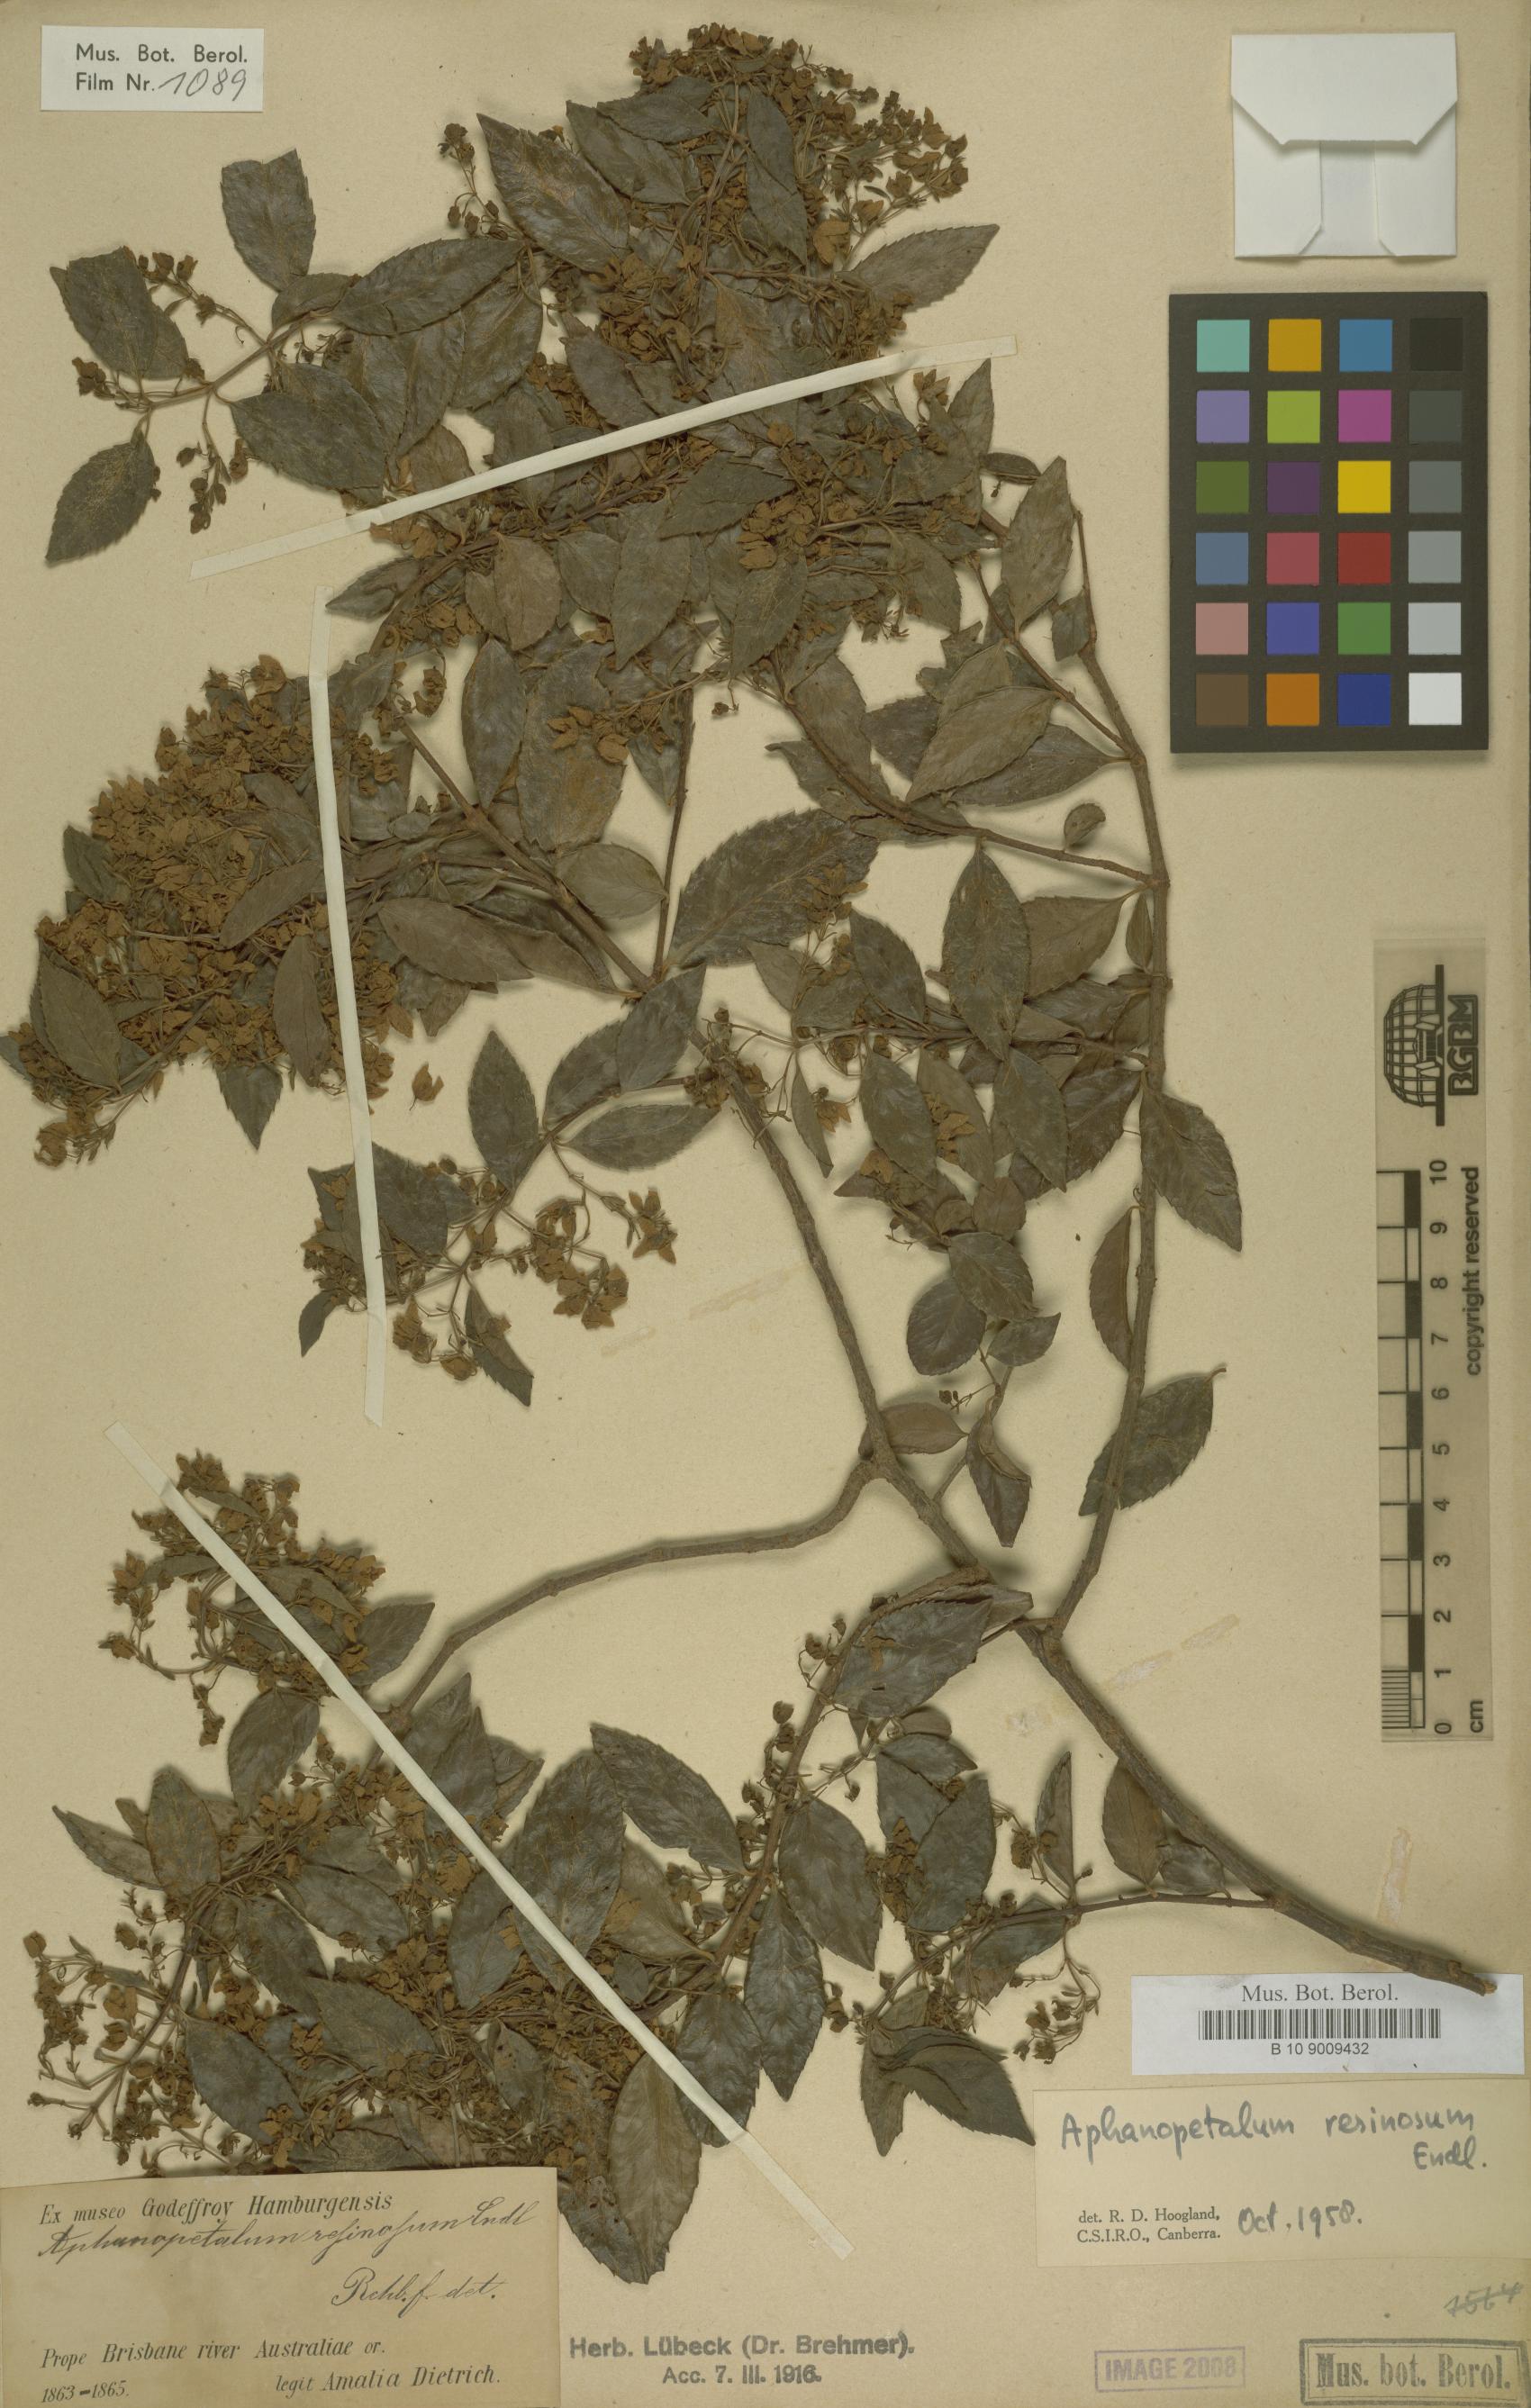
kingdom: Plantae
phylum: Tracheophyta
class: Magnoliopsida
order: Saxifragales
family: Aphanopetalaceae
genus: Aphanopetalum
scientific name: Aphanopetalum
